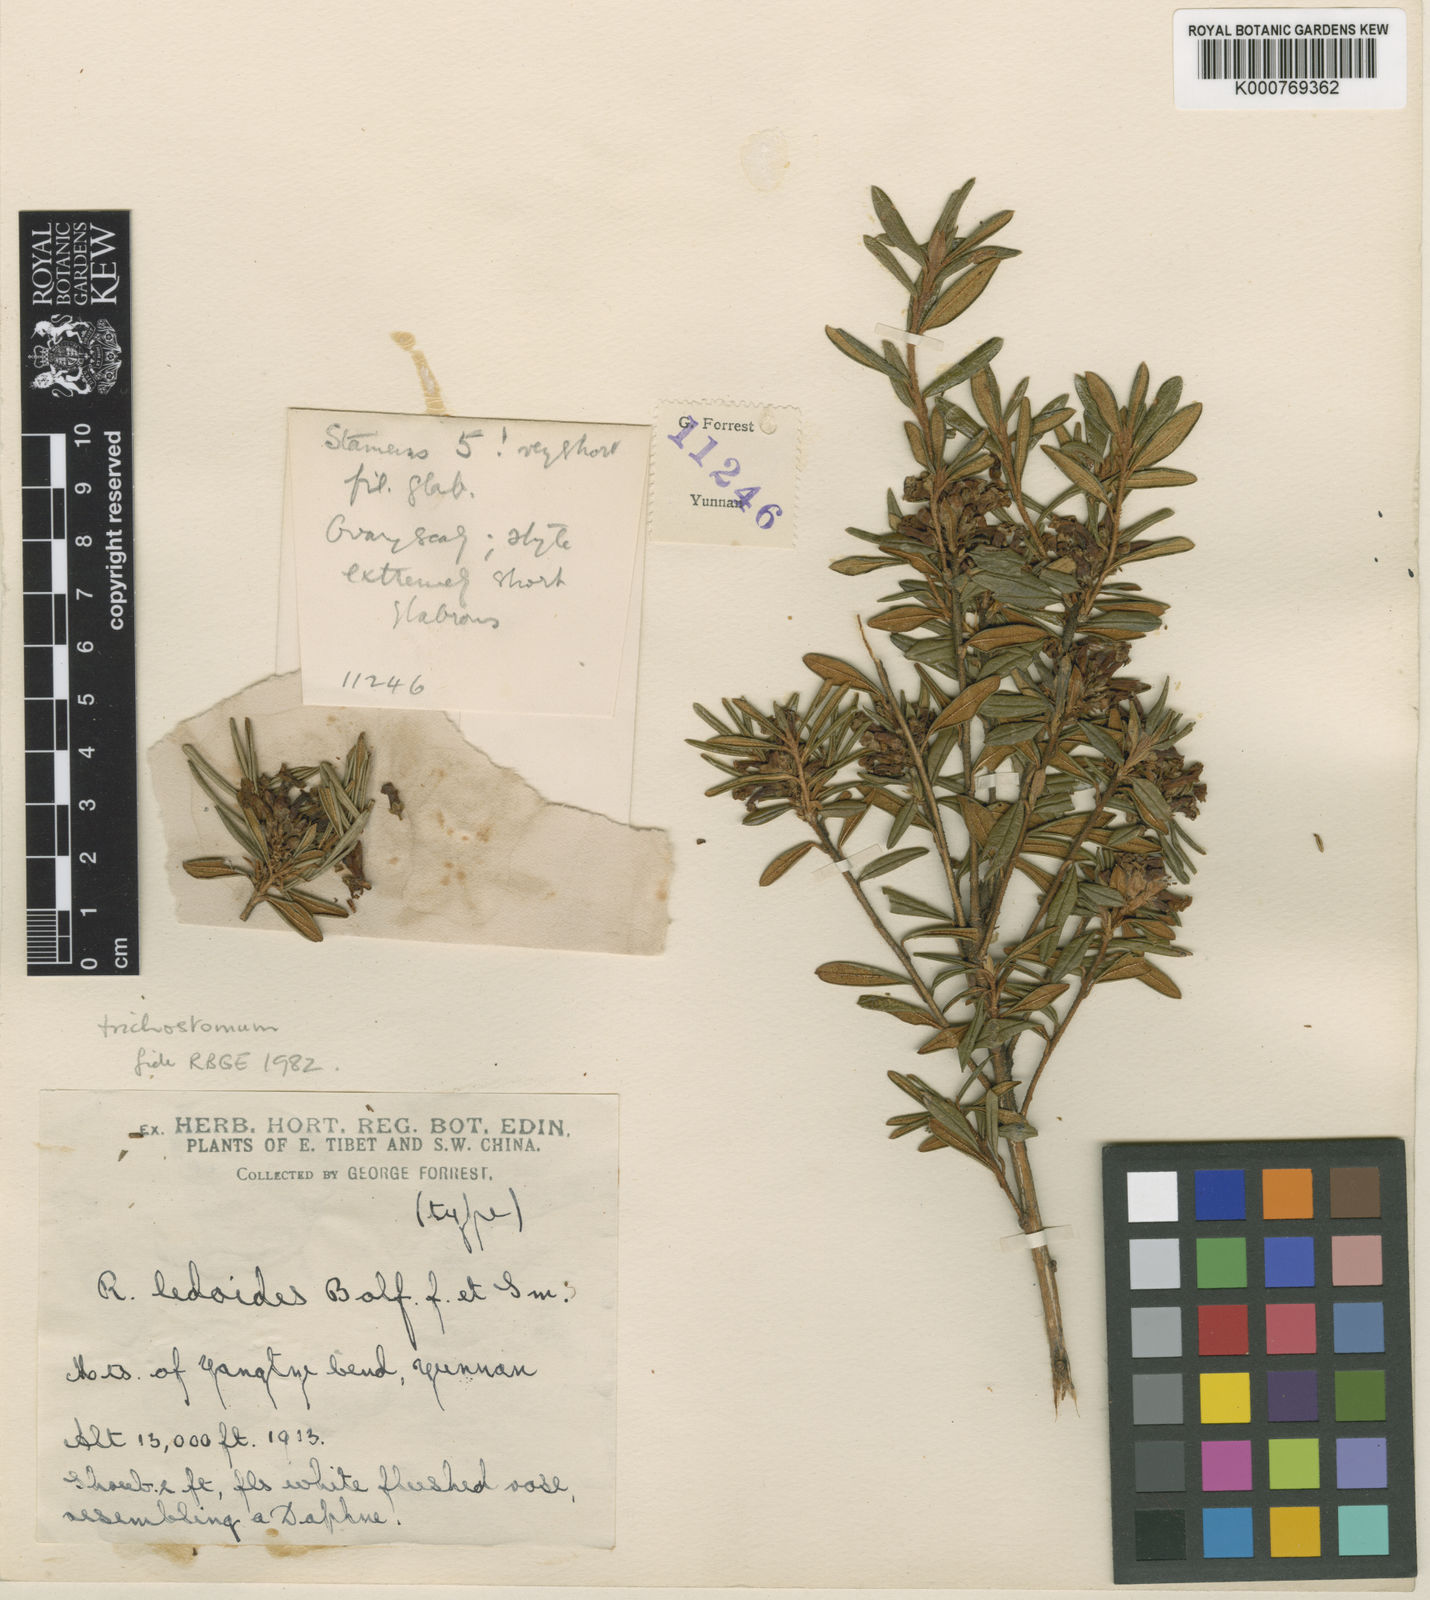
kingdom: Plantae
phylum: Tracheophyta
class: Magnoliopsida
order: Ericales
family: Ericaceae
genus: Rhododendron
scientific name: Rhododendron trichostomum
